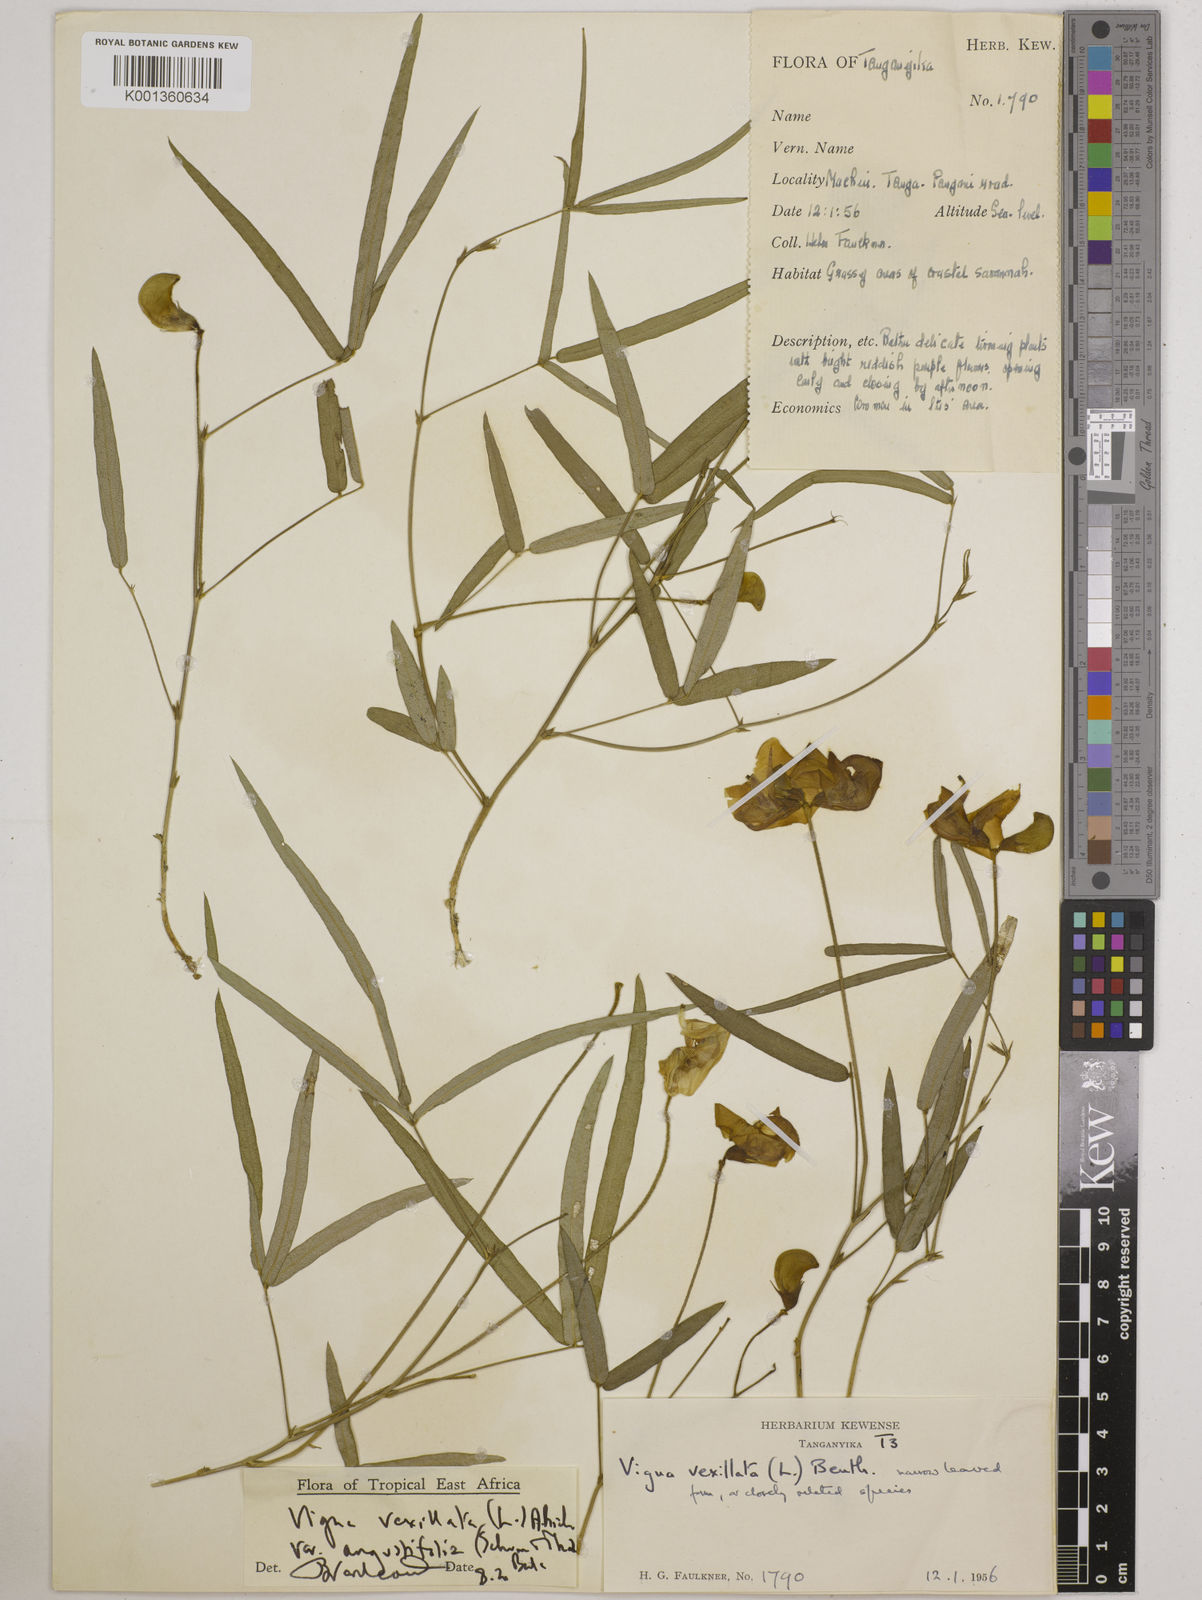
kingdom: Plantae
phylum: Tracheophyta
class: Magnoliopsida
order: Fabales
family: Fabaceae
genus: Vigna
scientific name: Vigna vexillata
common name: Zombi pea
